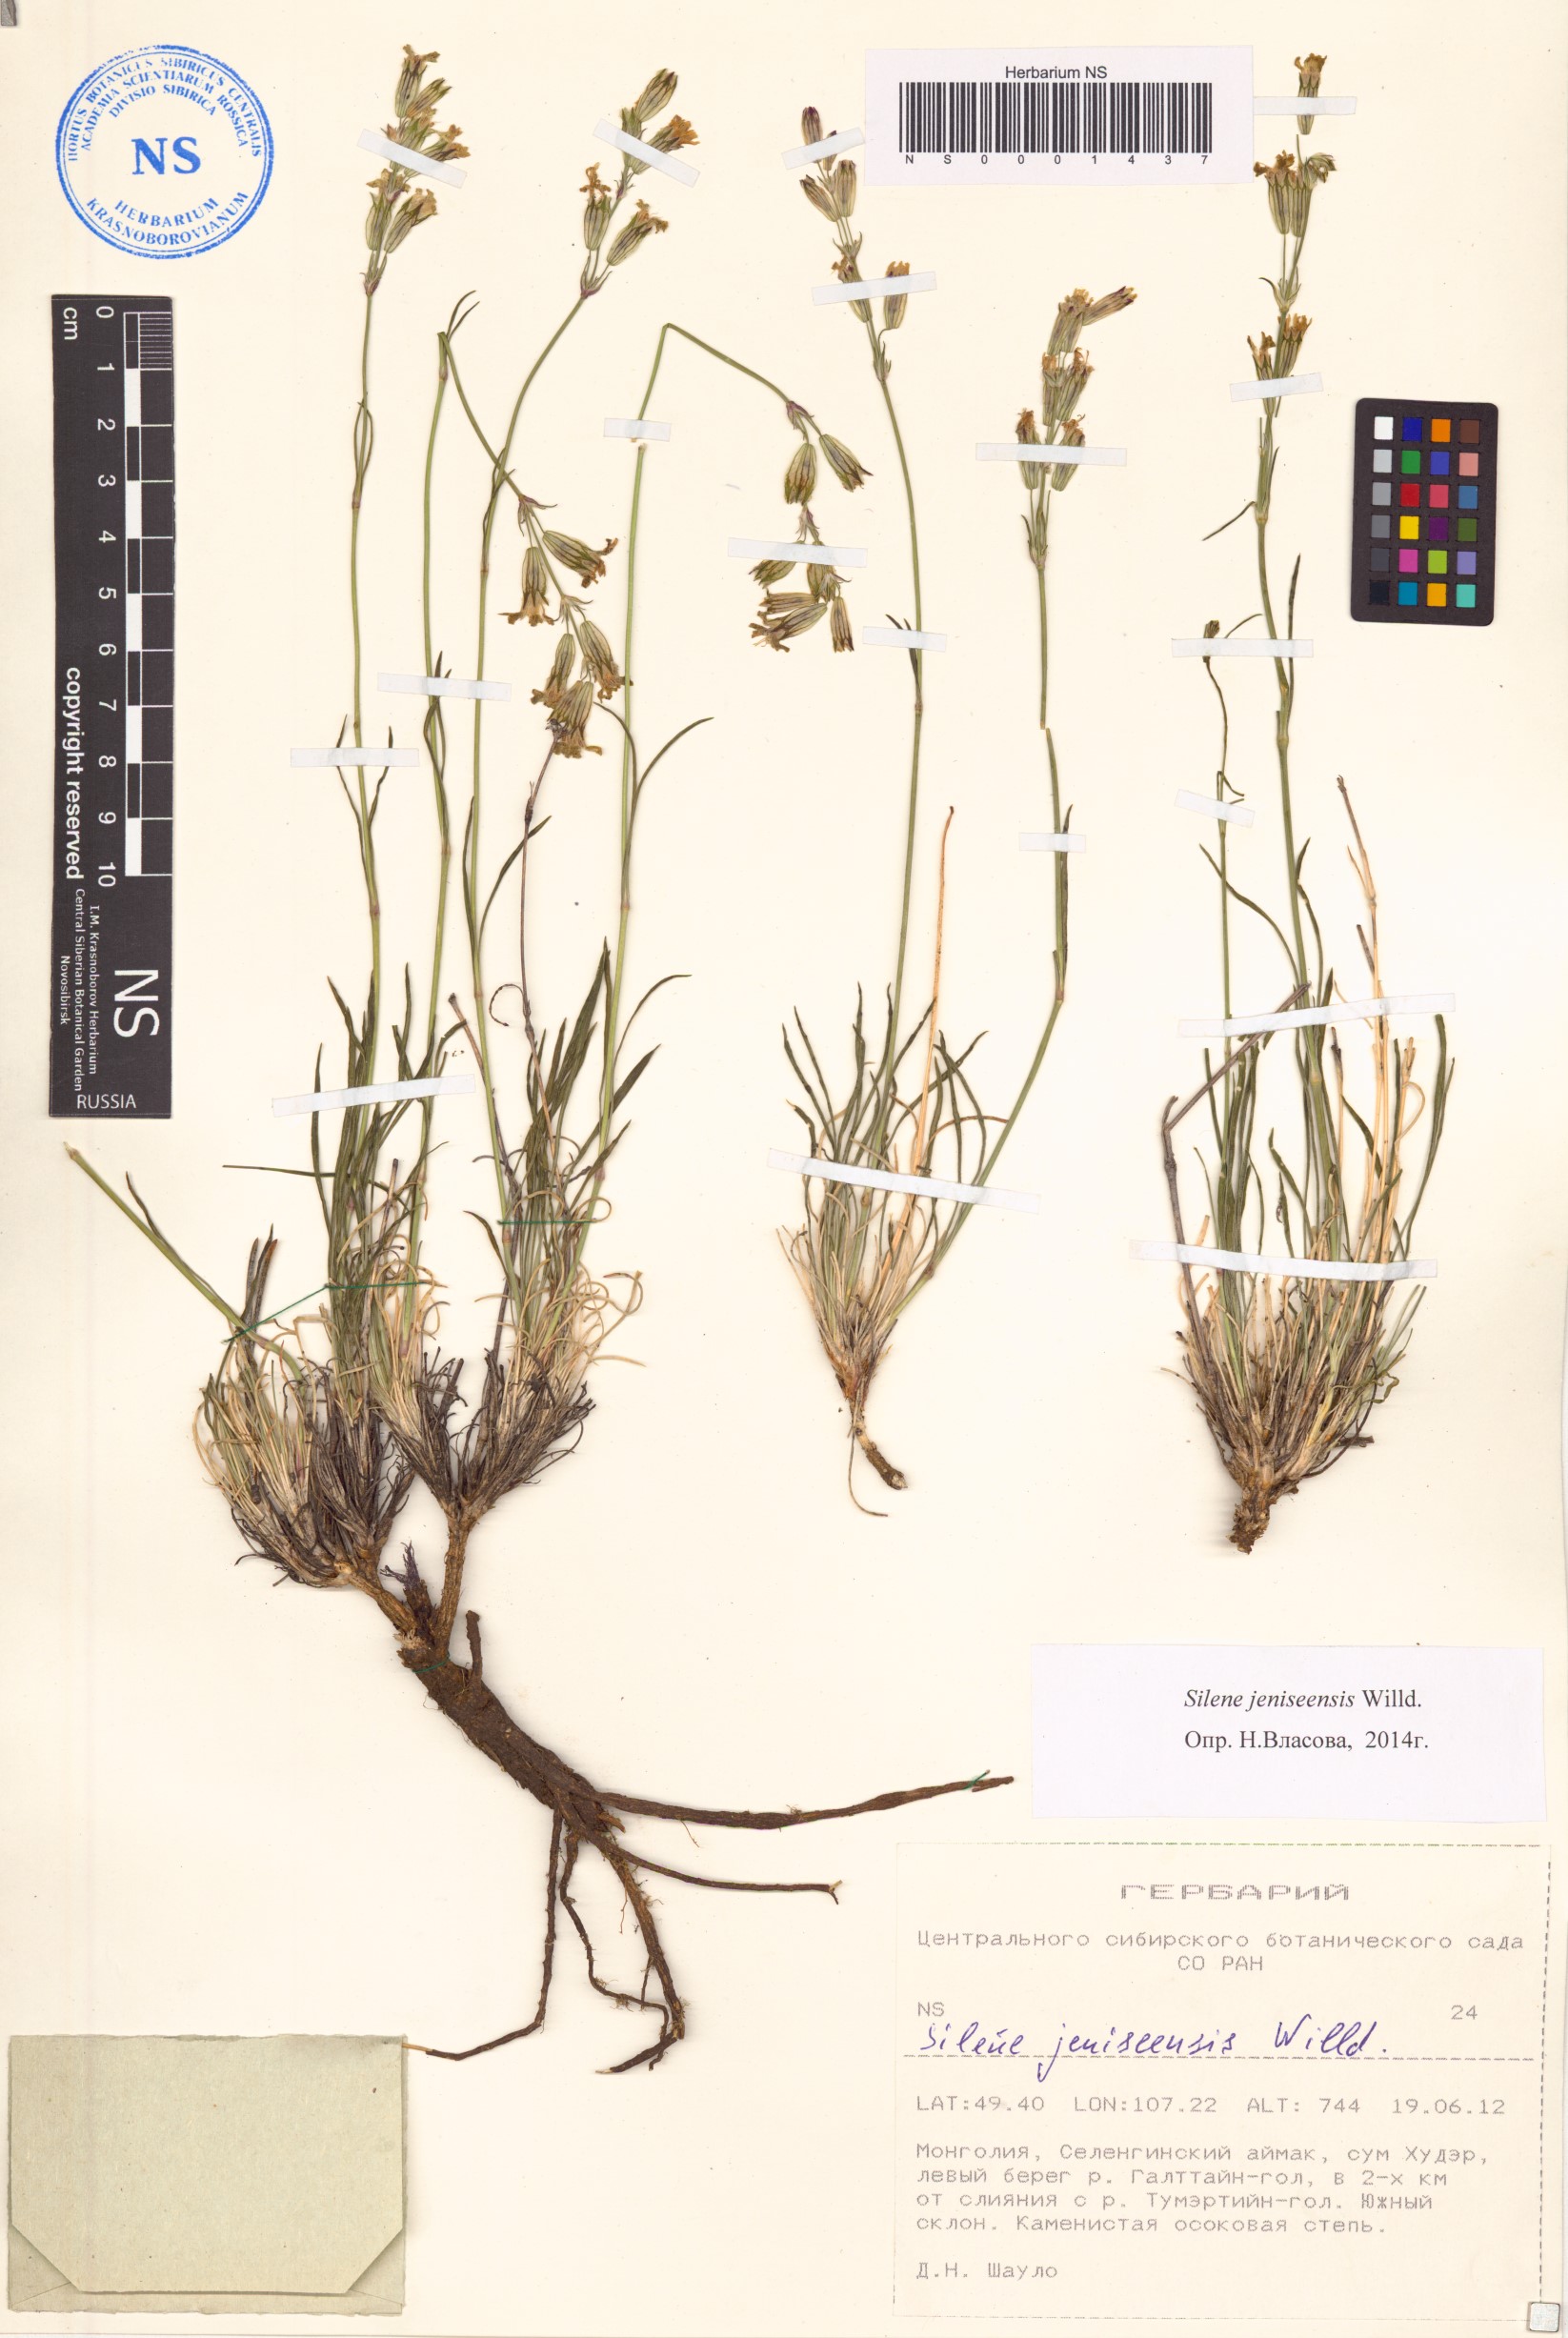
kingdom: Plantae
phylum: Tracheophyta
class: Magnoliopsida
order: Caryophyllales
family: Caryophyllaceae
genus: Silene
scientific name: Silene jeniseensis
